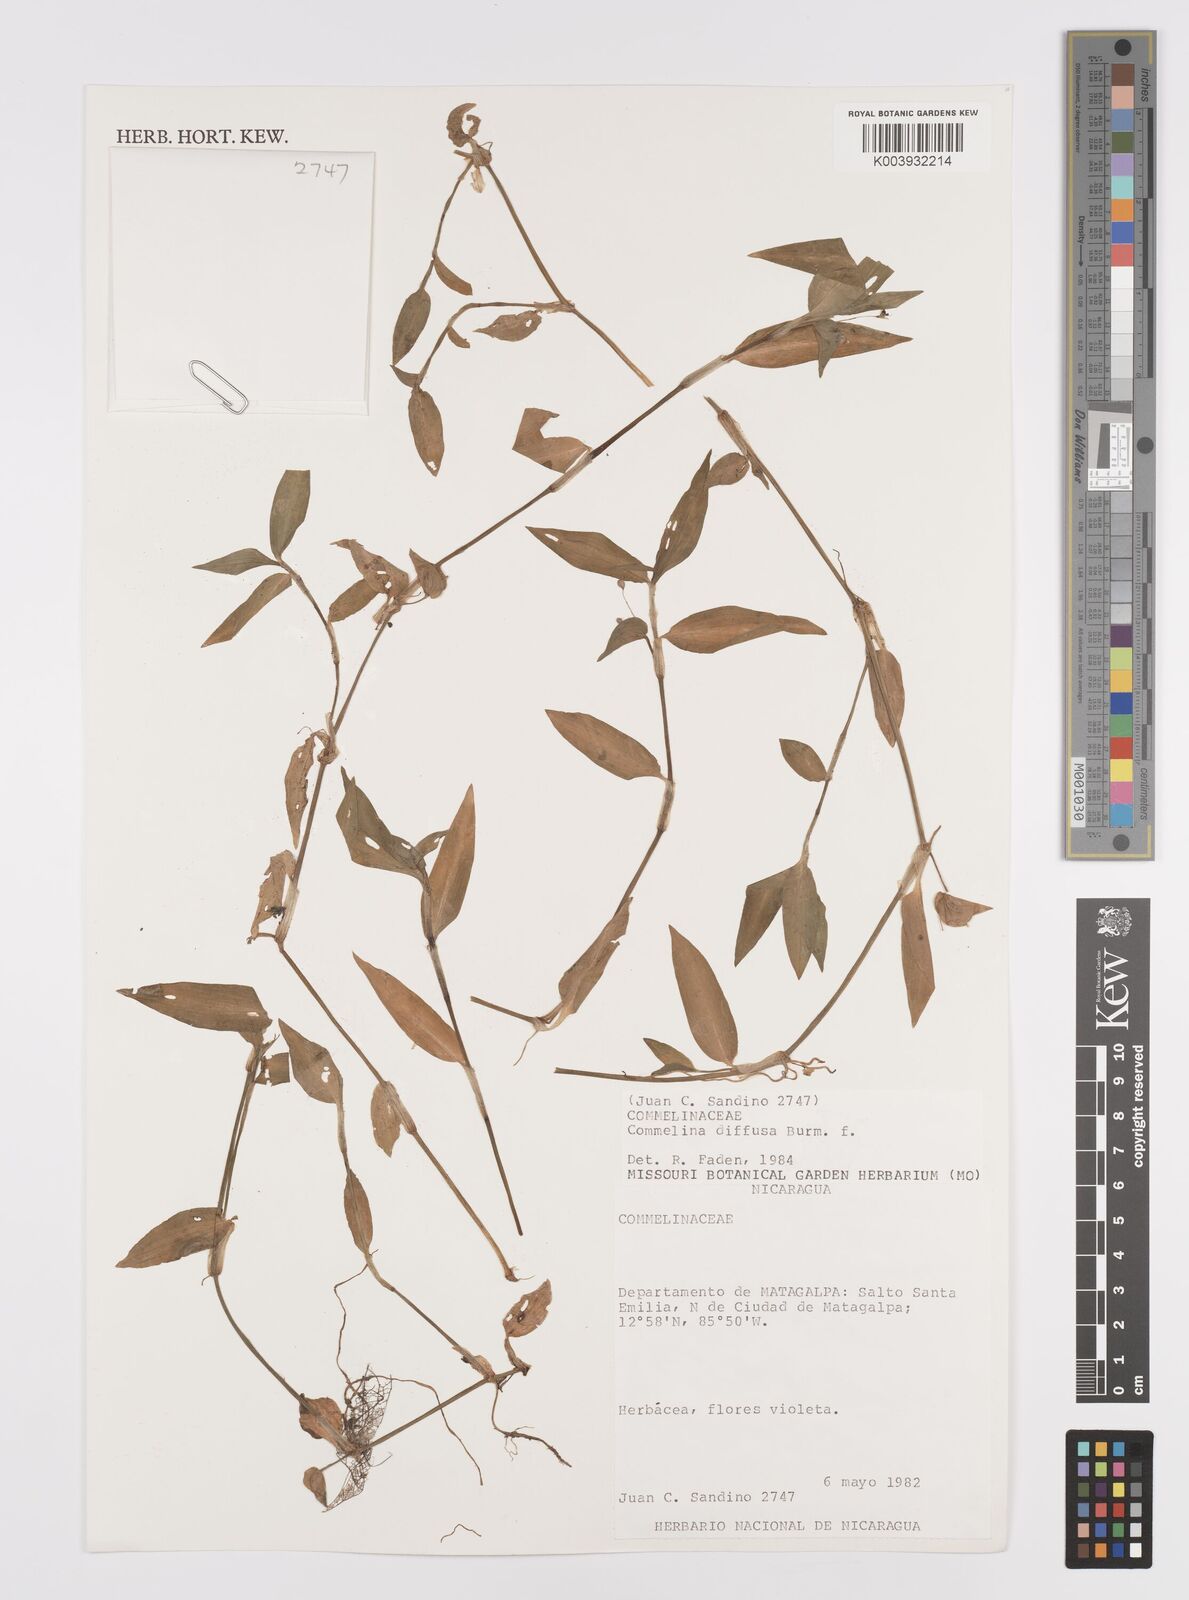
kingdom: Plantae
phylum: Tracheophyta
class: Liliopsida
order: Commelinales
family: Commelinaceae
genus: Commelina
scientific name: Commelina diffusa
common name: Climbing dayflower
